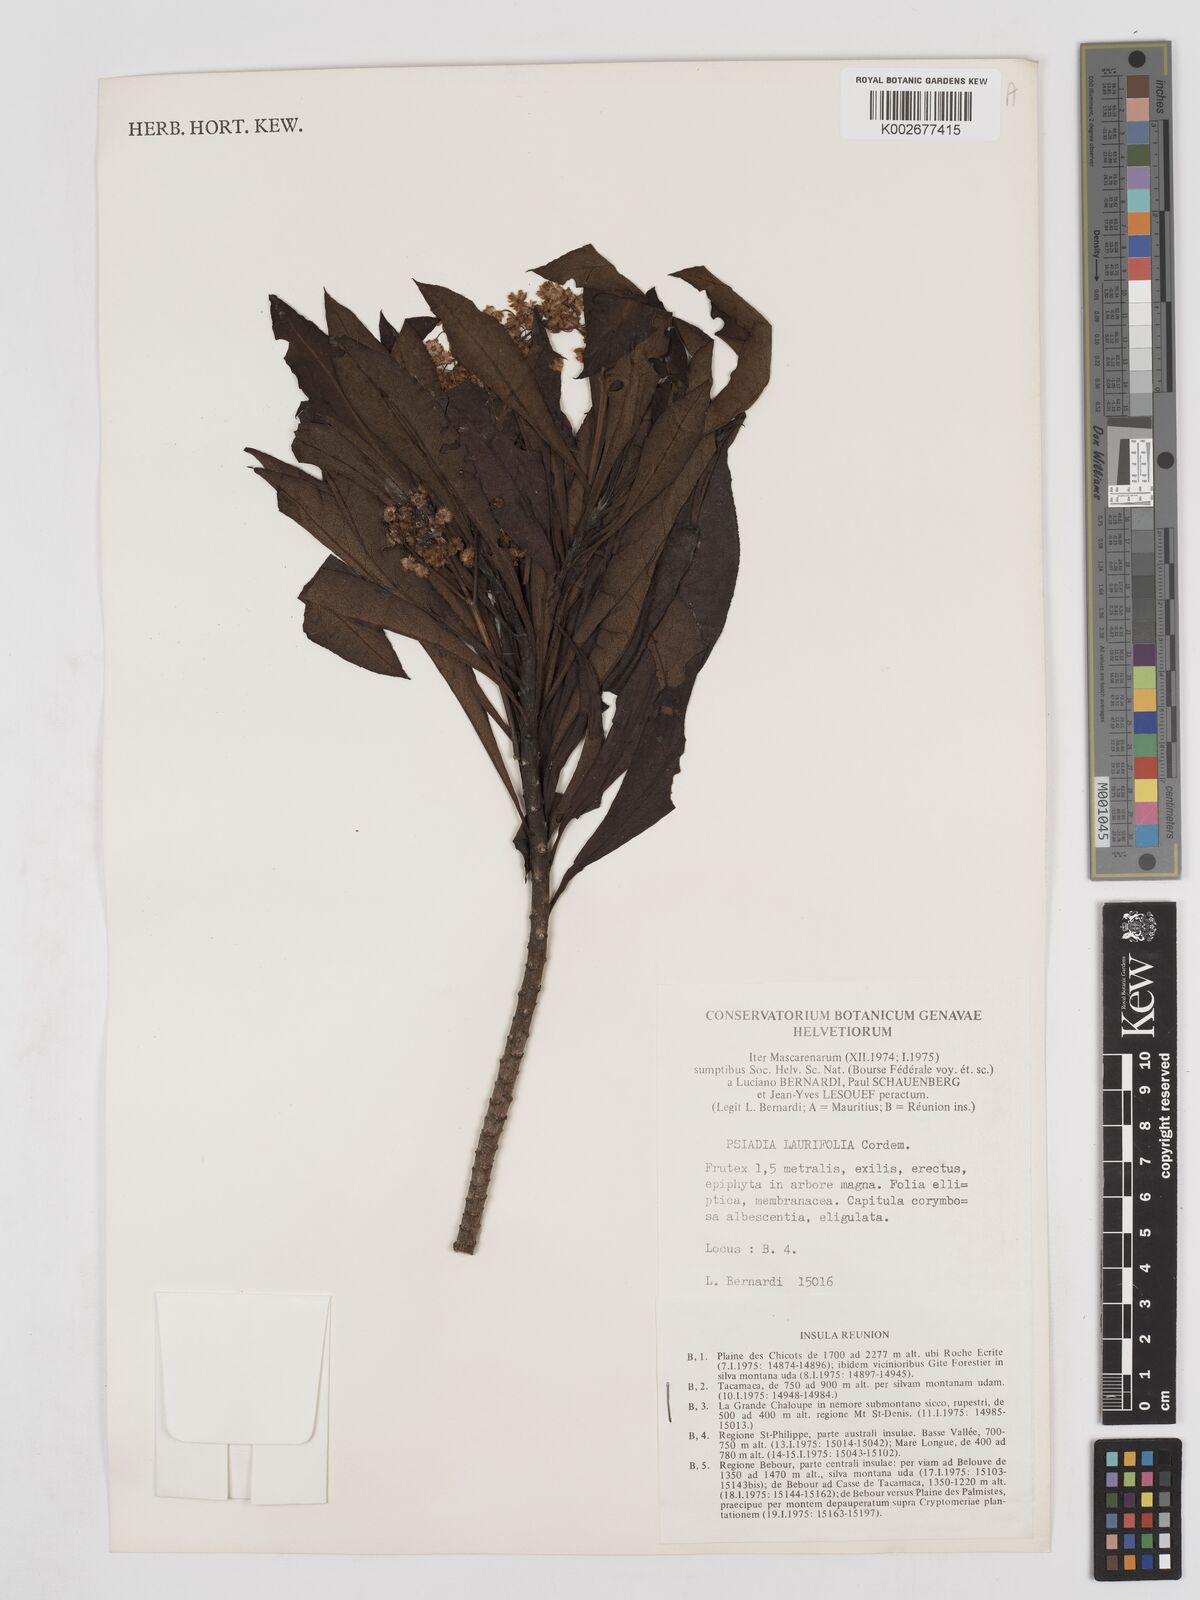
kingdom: Plantae
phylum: Tracheophyta
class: Magnoliopsida
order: Asterales
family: Asteraceae
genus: Psiadia
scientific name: Psiadia laurifolia
